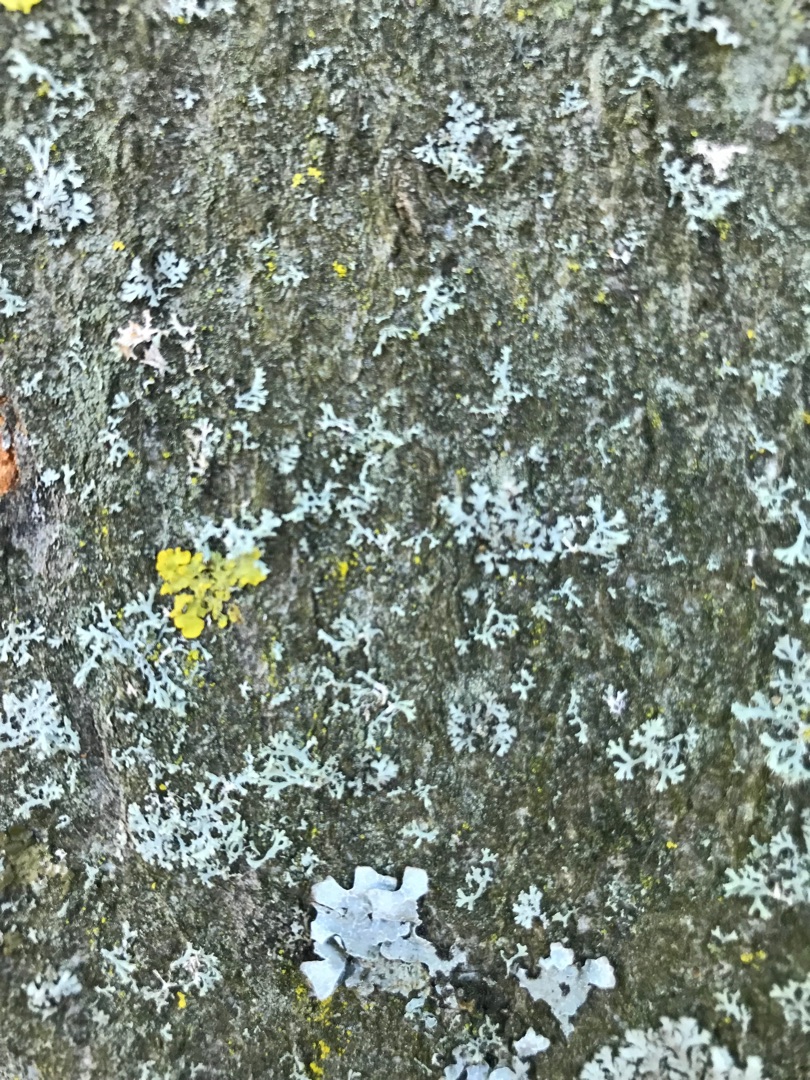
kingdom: Fungi
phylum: Ascomycota
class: Lecanoromycetes
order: Teloschistales
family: Teloschistaceae
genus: Xanthoria
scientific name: Xanthoria parietina
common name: Almindelig væggelav
